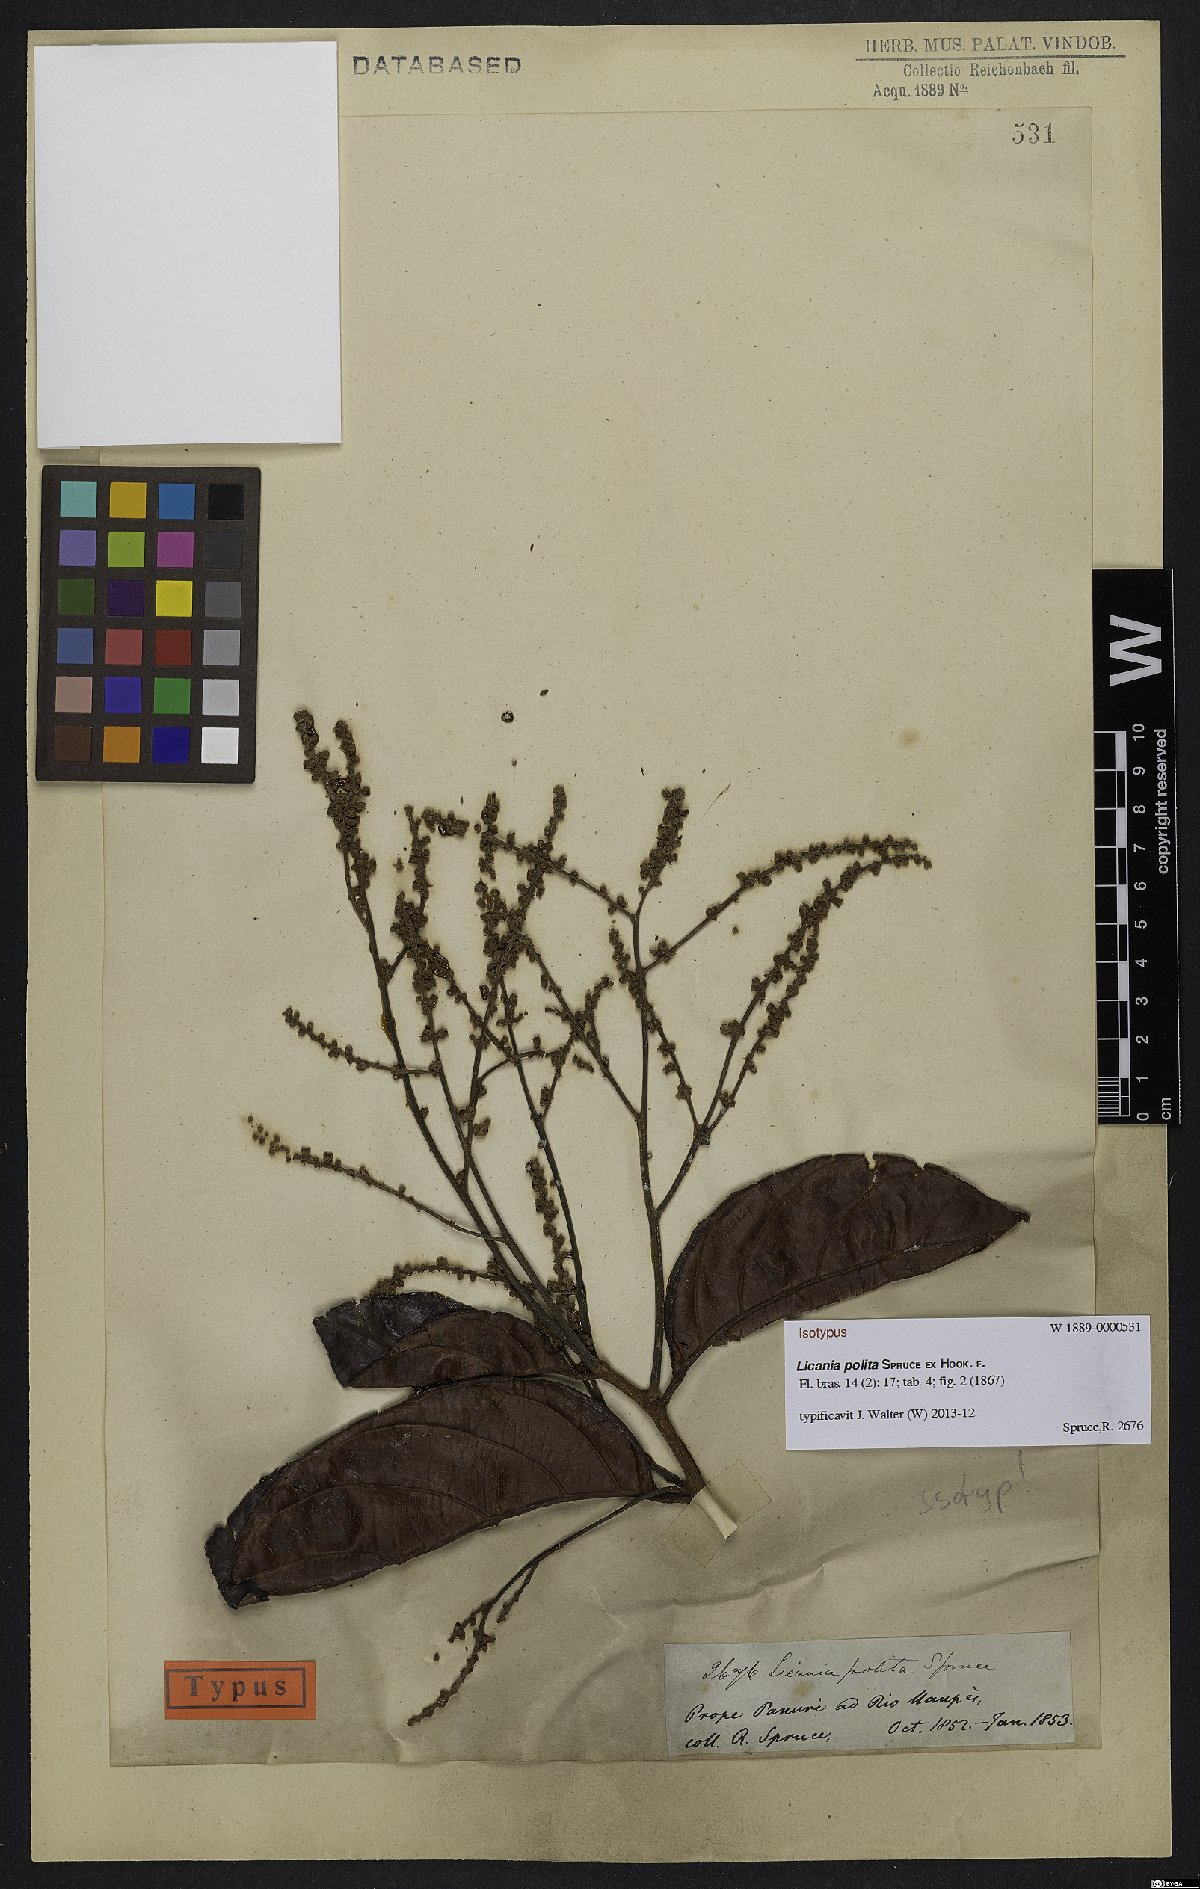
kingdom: Plantae
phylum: Tracheophyta
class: Magnoliopsida
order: Malpighiales
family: Chrysobalanaceae
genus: Licania
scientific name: Licania polita
